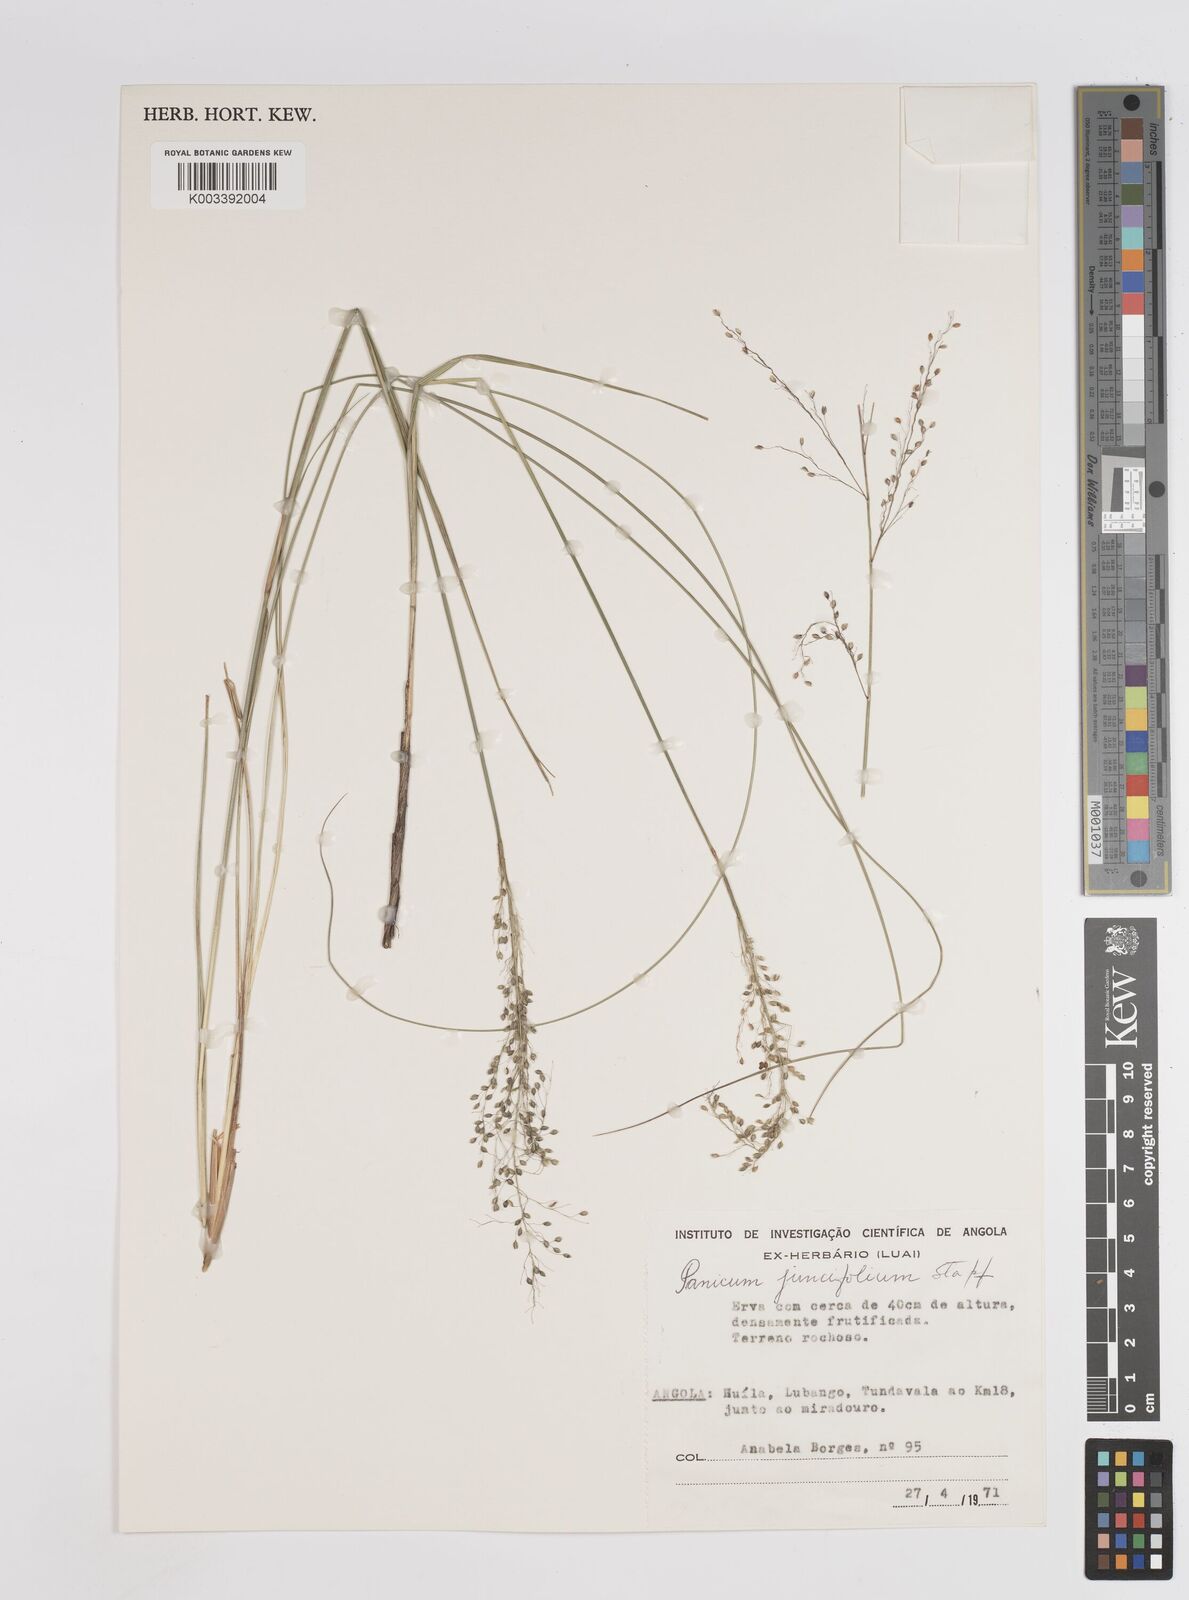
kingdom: Plantae
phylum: Tracheophyta
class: Liliopsida
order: Poales
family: Poaceae
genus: Trichanthecium
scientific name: Trichanthecium natalense
